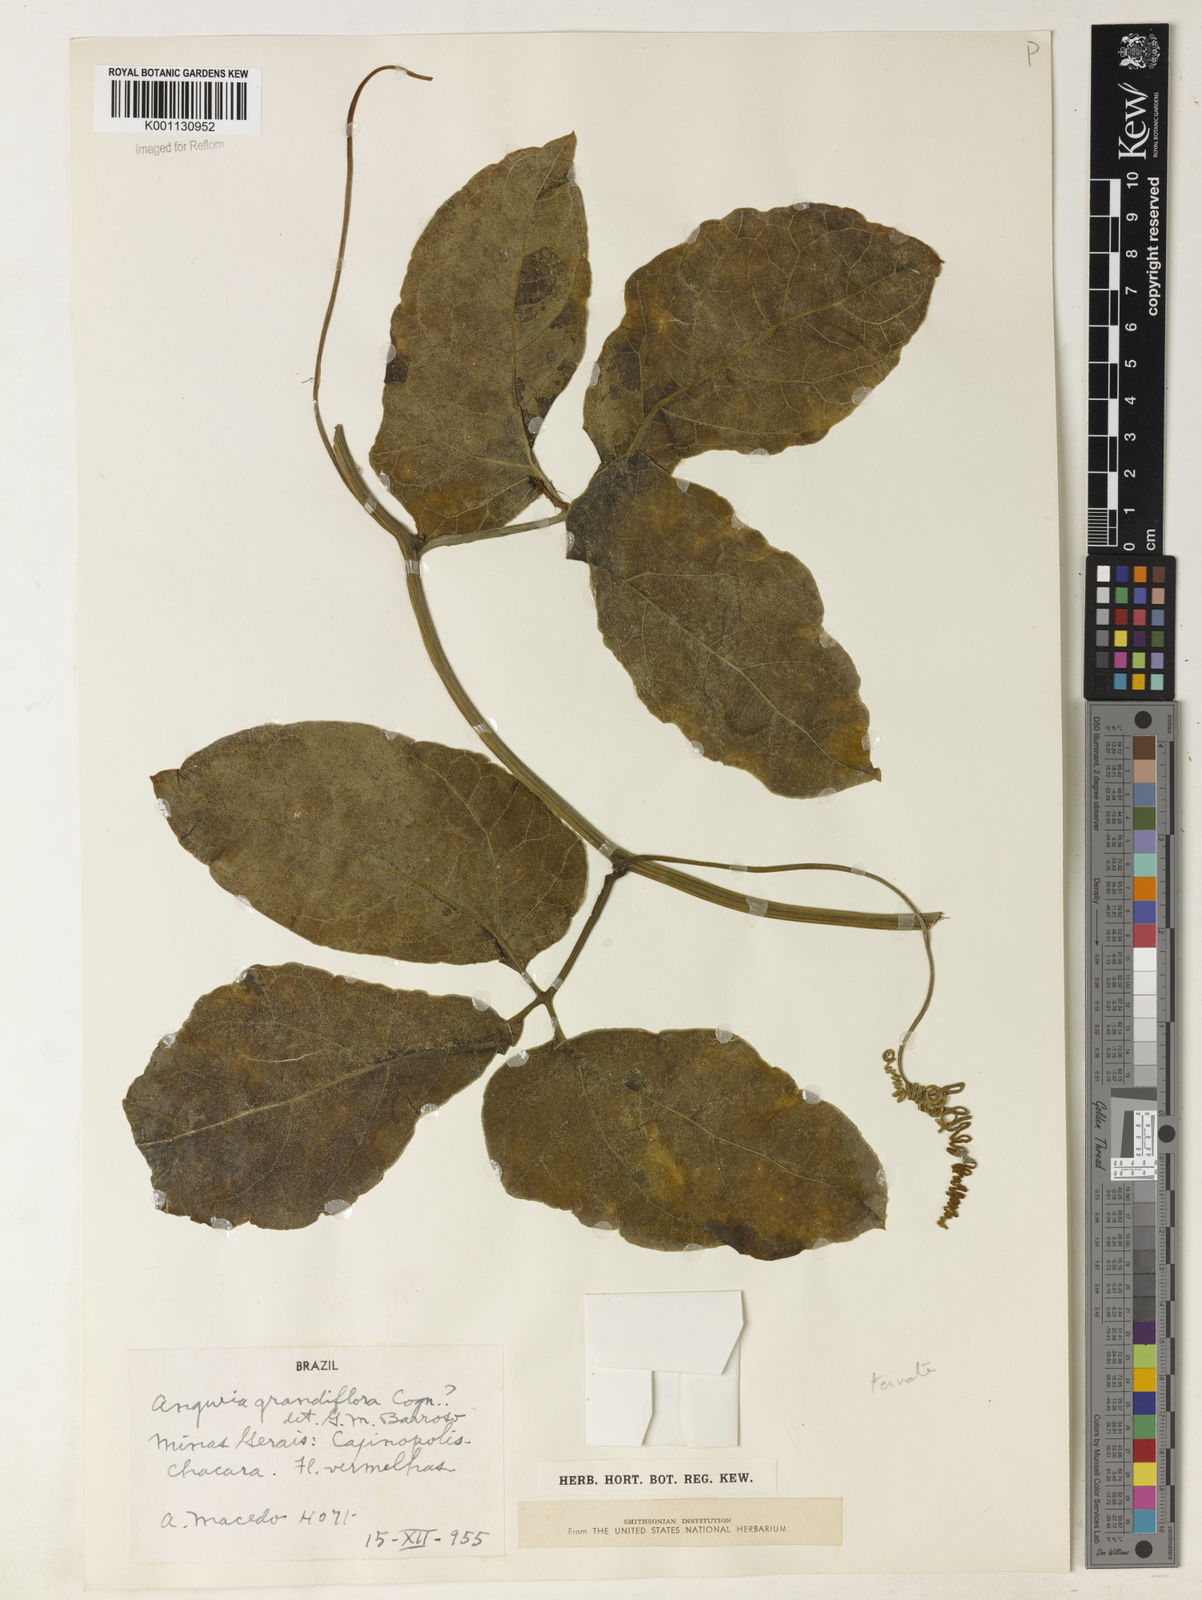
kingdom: Plantae
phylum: Tracheophyta
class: Magnoliopsida
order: Cucurbitales
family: Cucurbitaceae
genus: Psiguria
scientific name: Psiguria ternata
